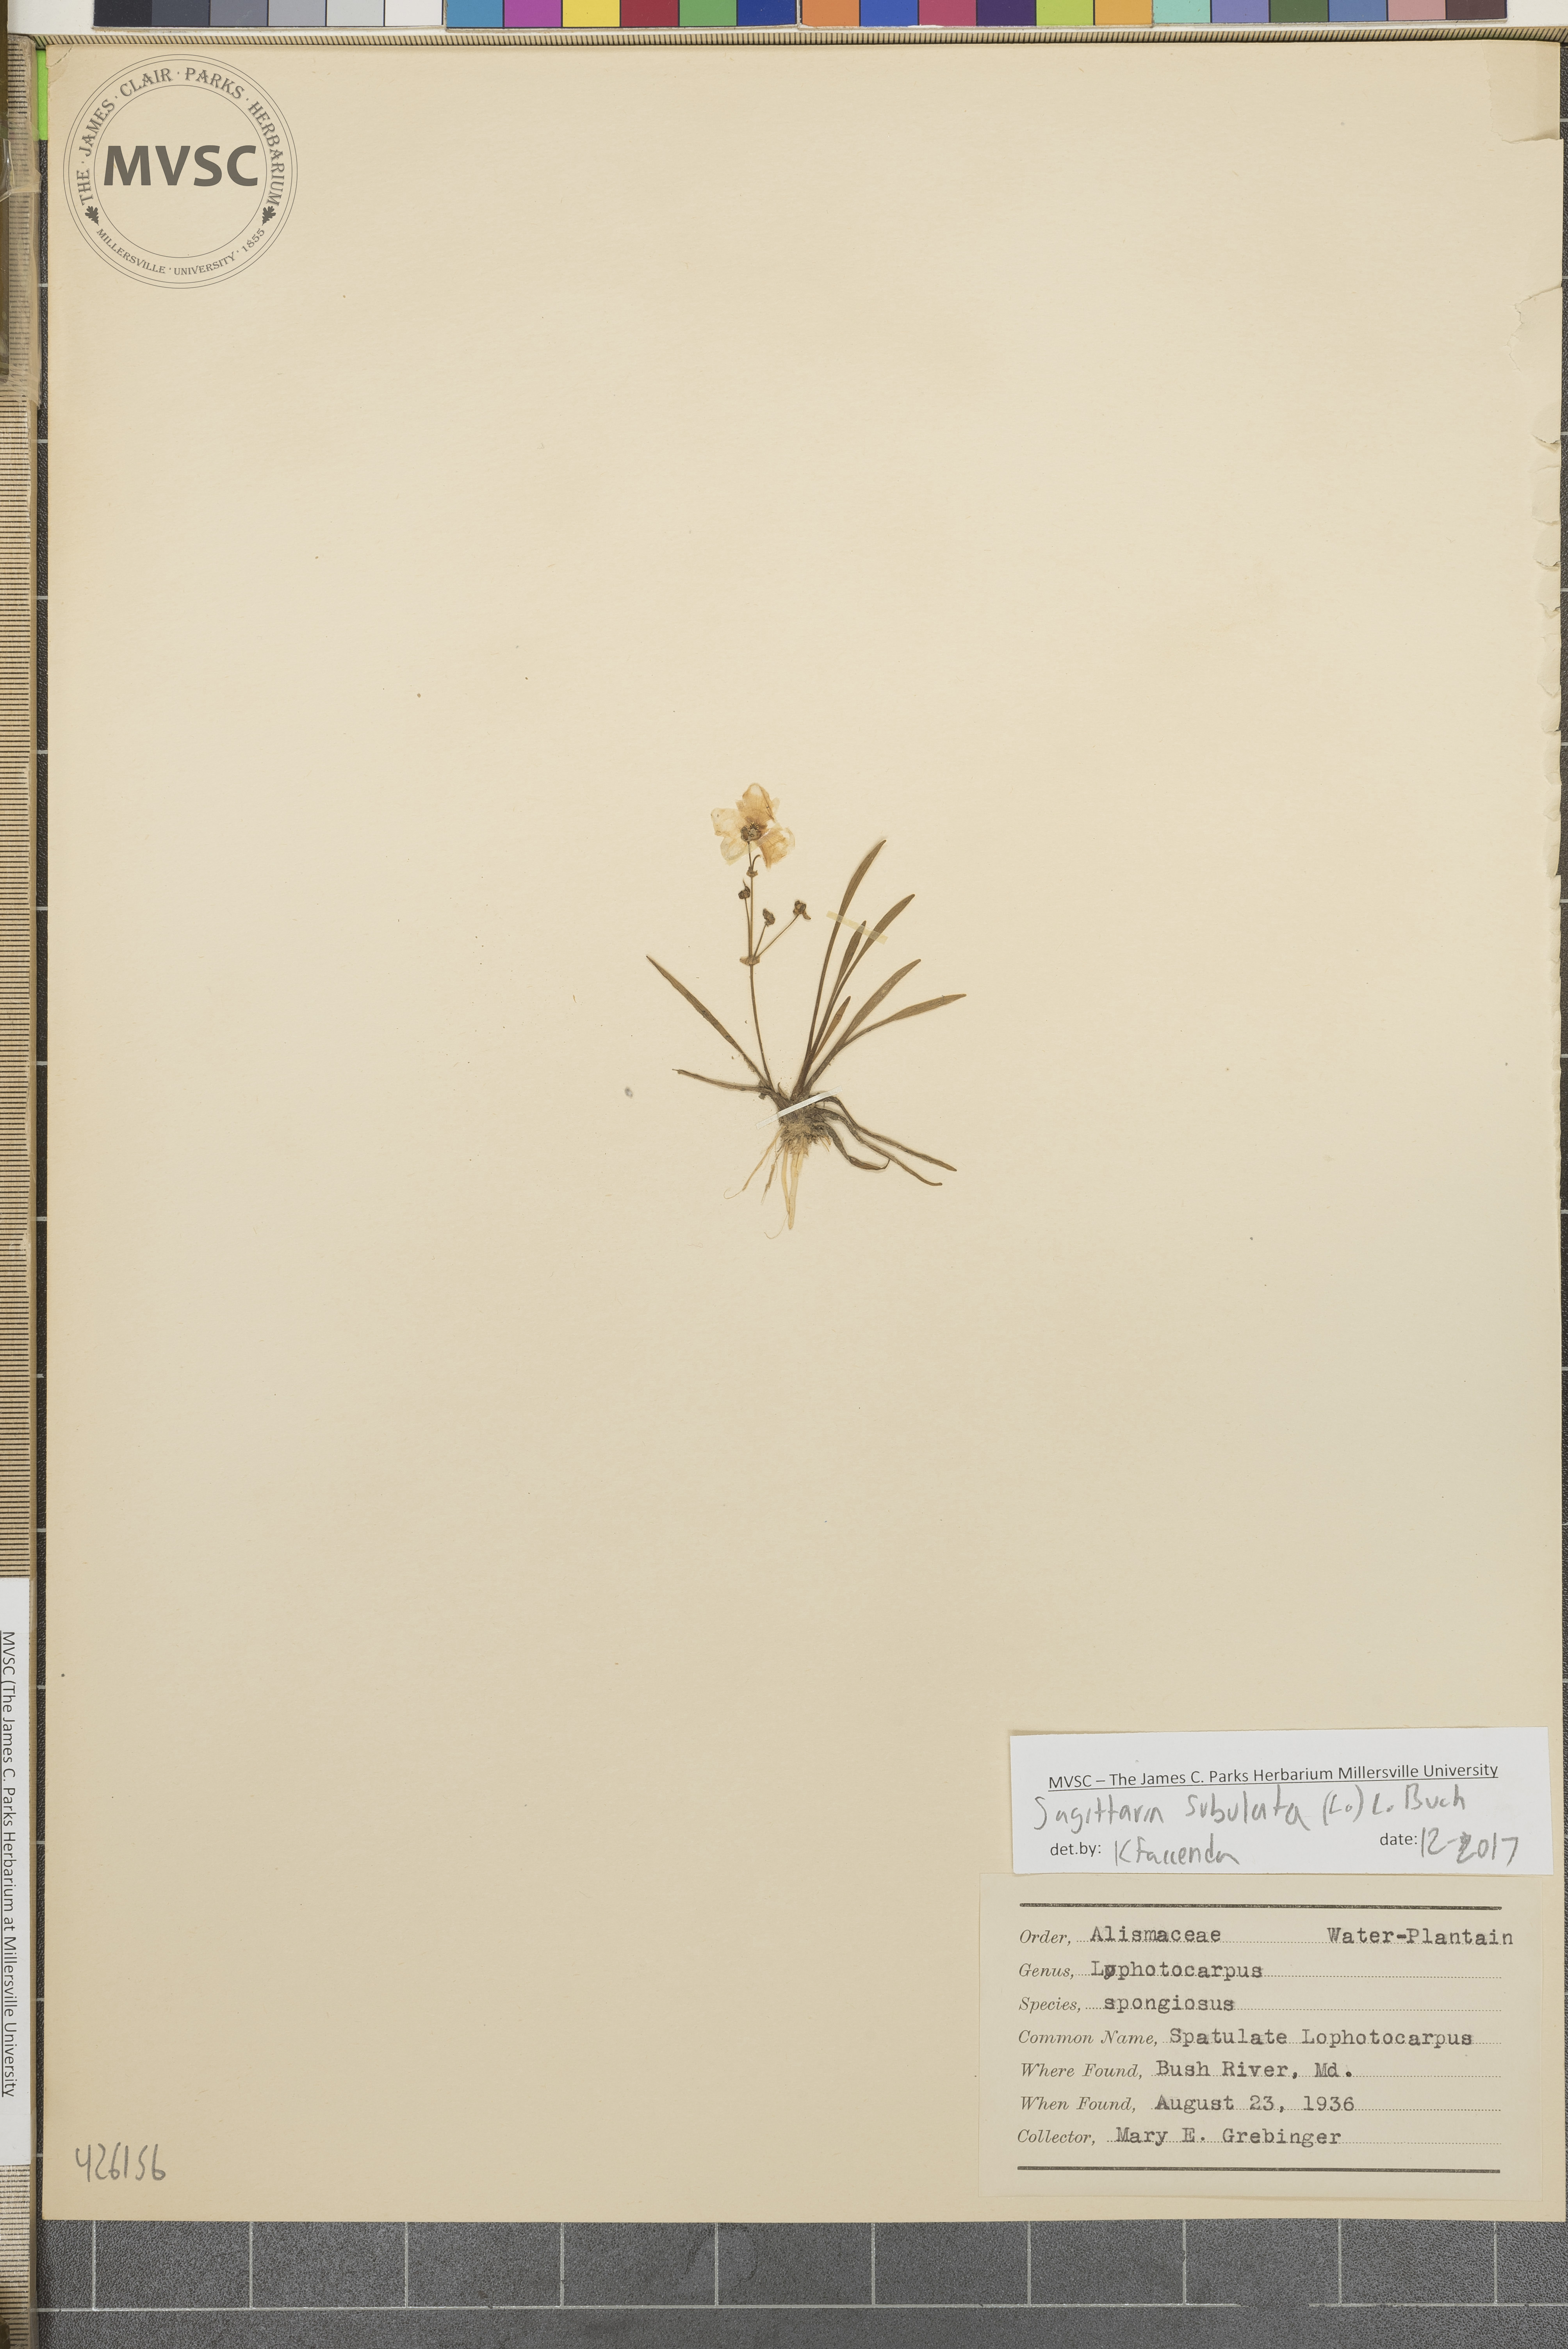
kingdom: Plantae
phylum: Tracheophyta
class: Liliopsida
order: Alismatales
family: Alismataceae
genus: Sagittaria
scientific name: Sagittaria subulata
